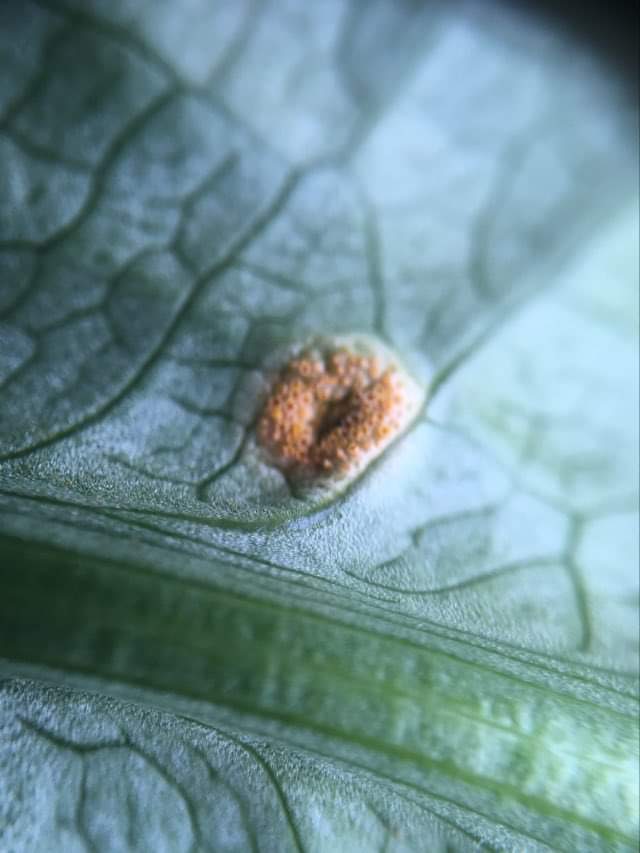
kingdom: Fungi
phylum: Basidiomycota
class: Pucciniomycetes
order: Pucciniales
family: Pucciniaceae
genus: Puccinia
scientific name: Puccinia sessilis
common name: Arum rust
